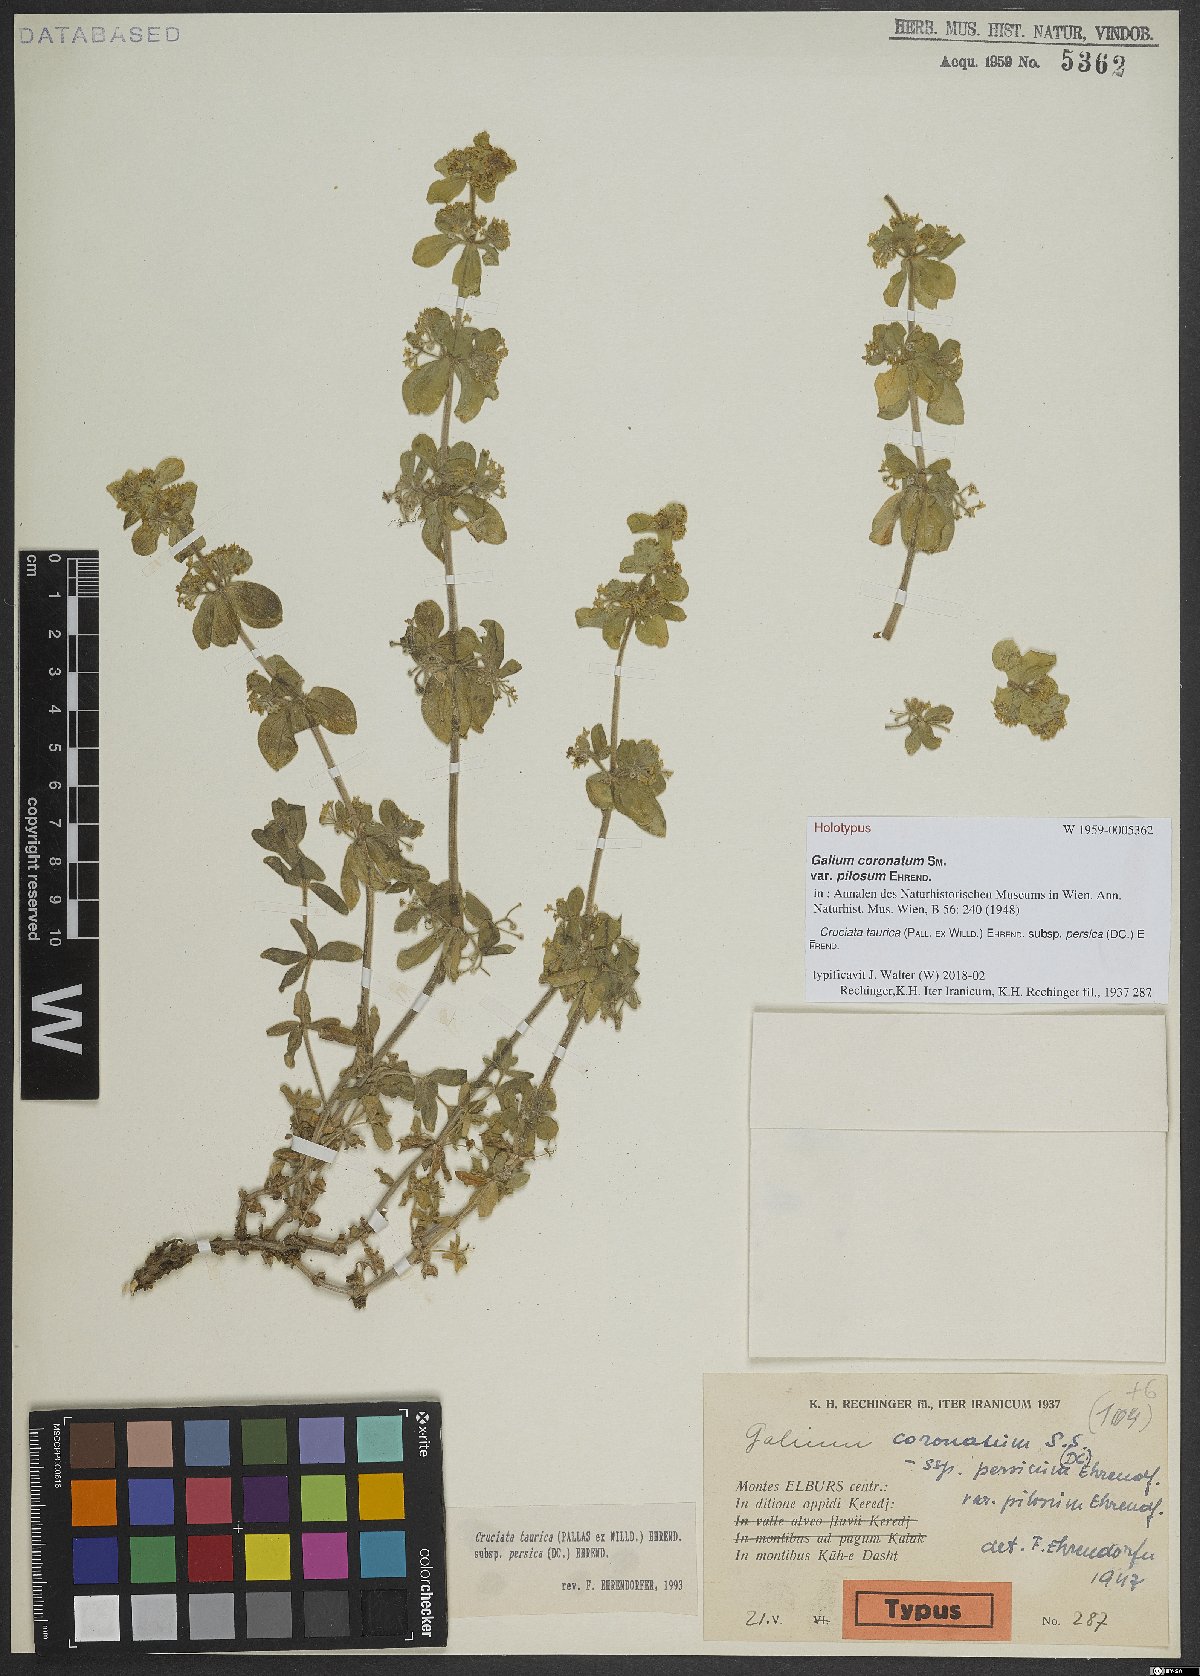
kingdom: Plantae
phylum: Tracheophyta
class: Magnoliopsida
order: Gentianales
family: Rubiaceae
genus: Cruciata
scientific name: Cruciata taurica
